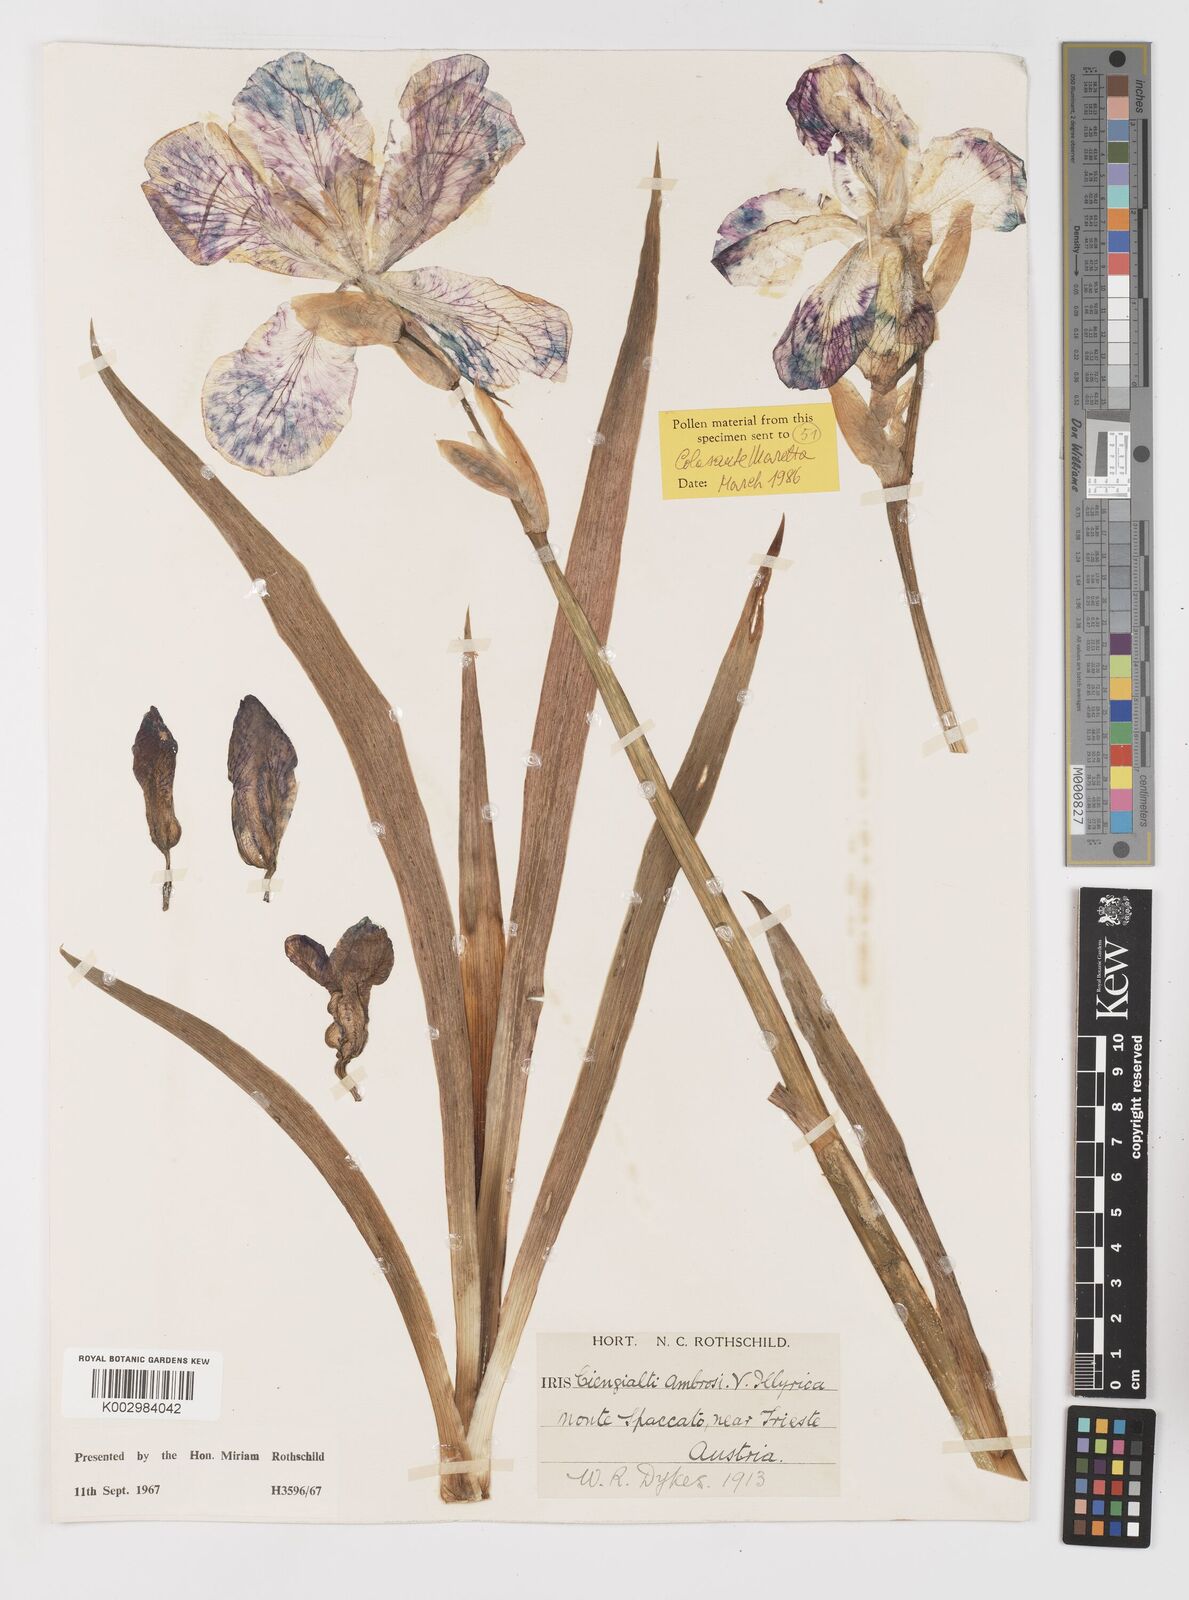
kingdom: Plantae
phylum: Tracheophyta
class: Liliopsida
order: Asparagales
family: Iridaceae
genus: Iris
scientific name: Iris pallida
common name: Sweet iris
